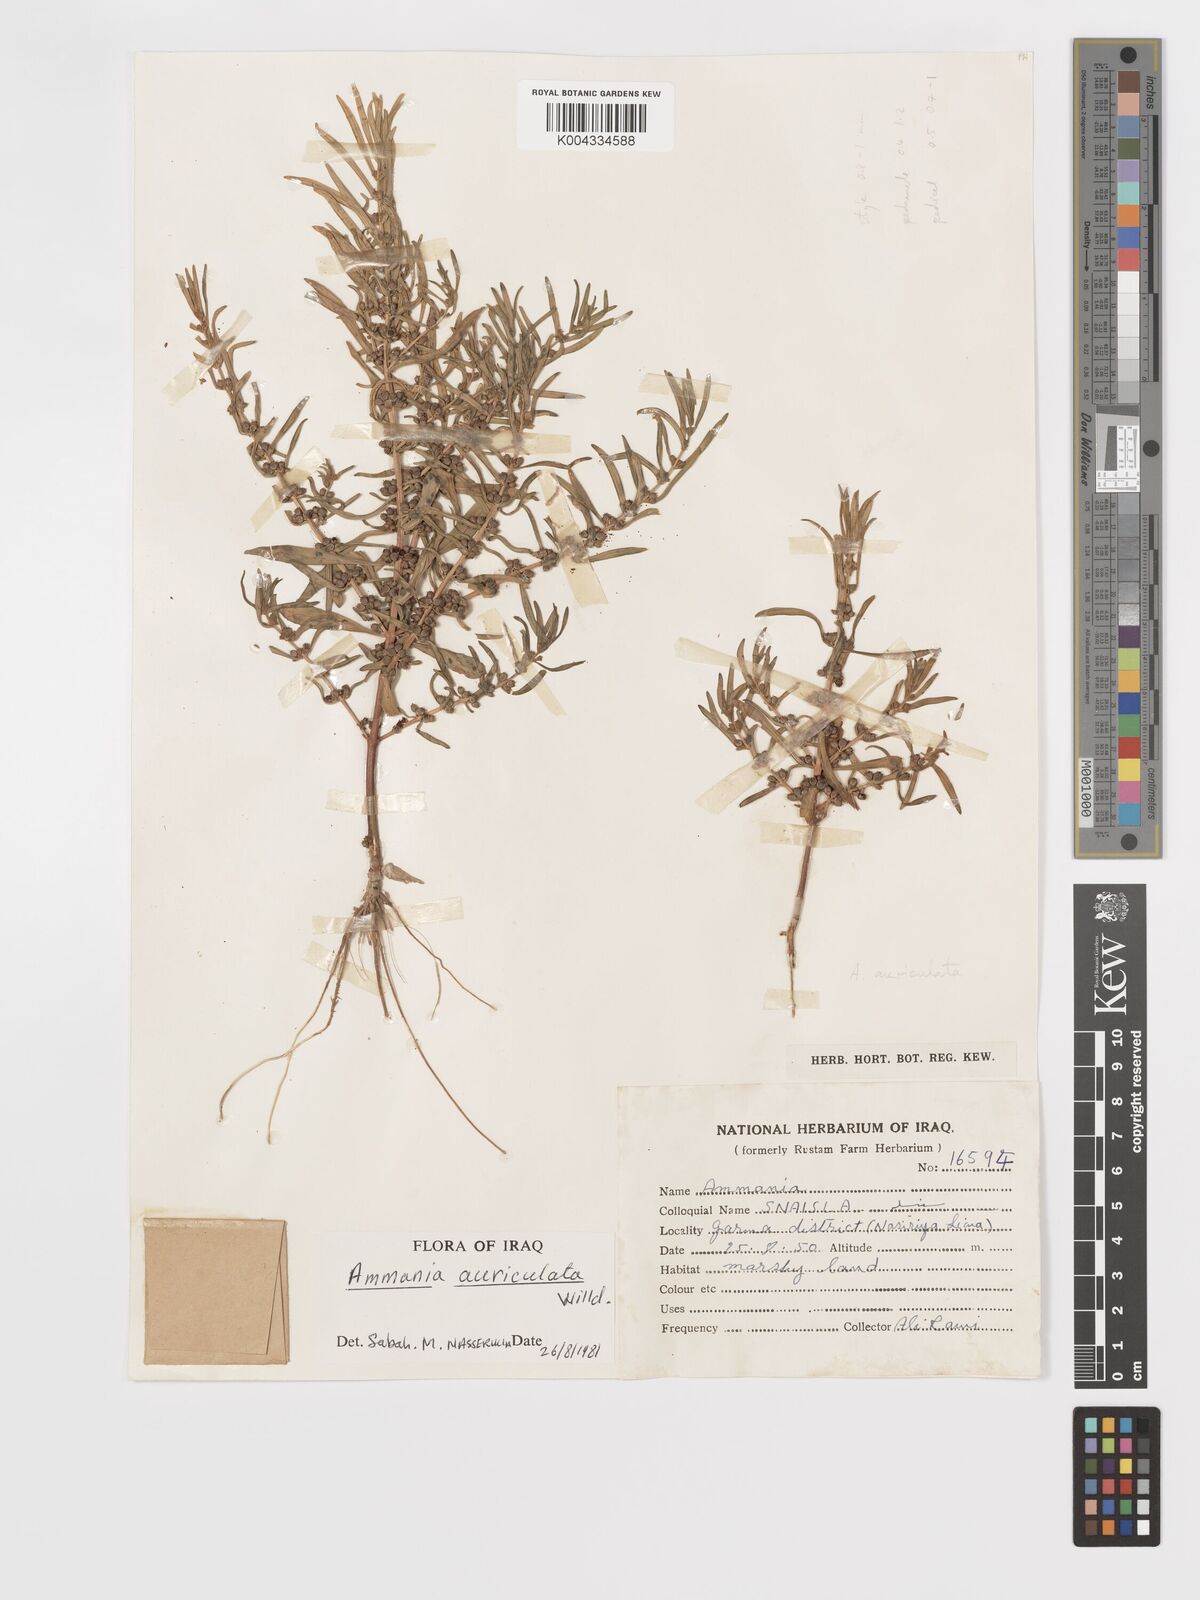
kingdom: Plantae
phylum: Tracheophyta
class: Magnoliopsida
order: Myrtales
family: Lythraceae
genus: Ammannia
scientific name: Ammannia auriculata
